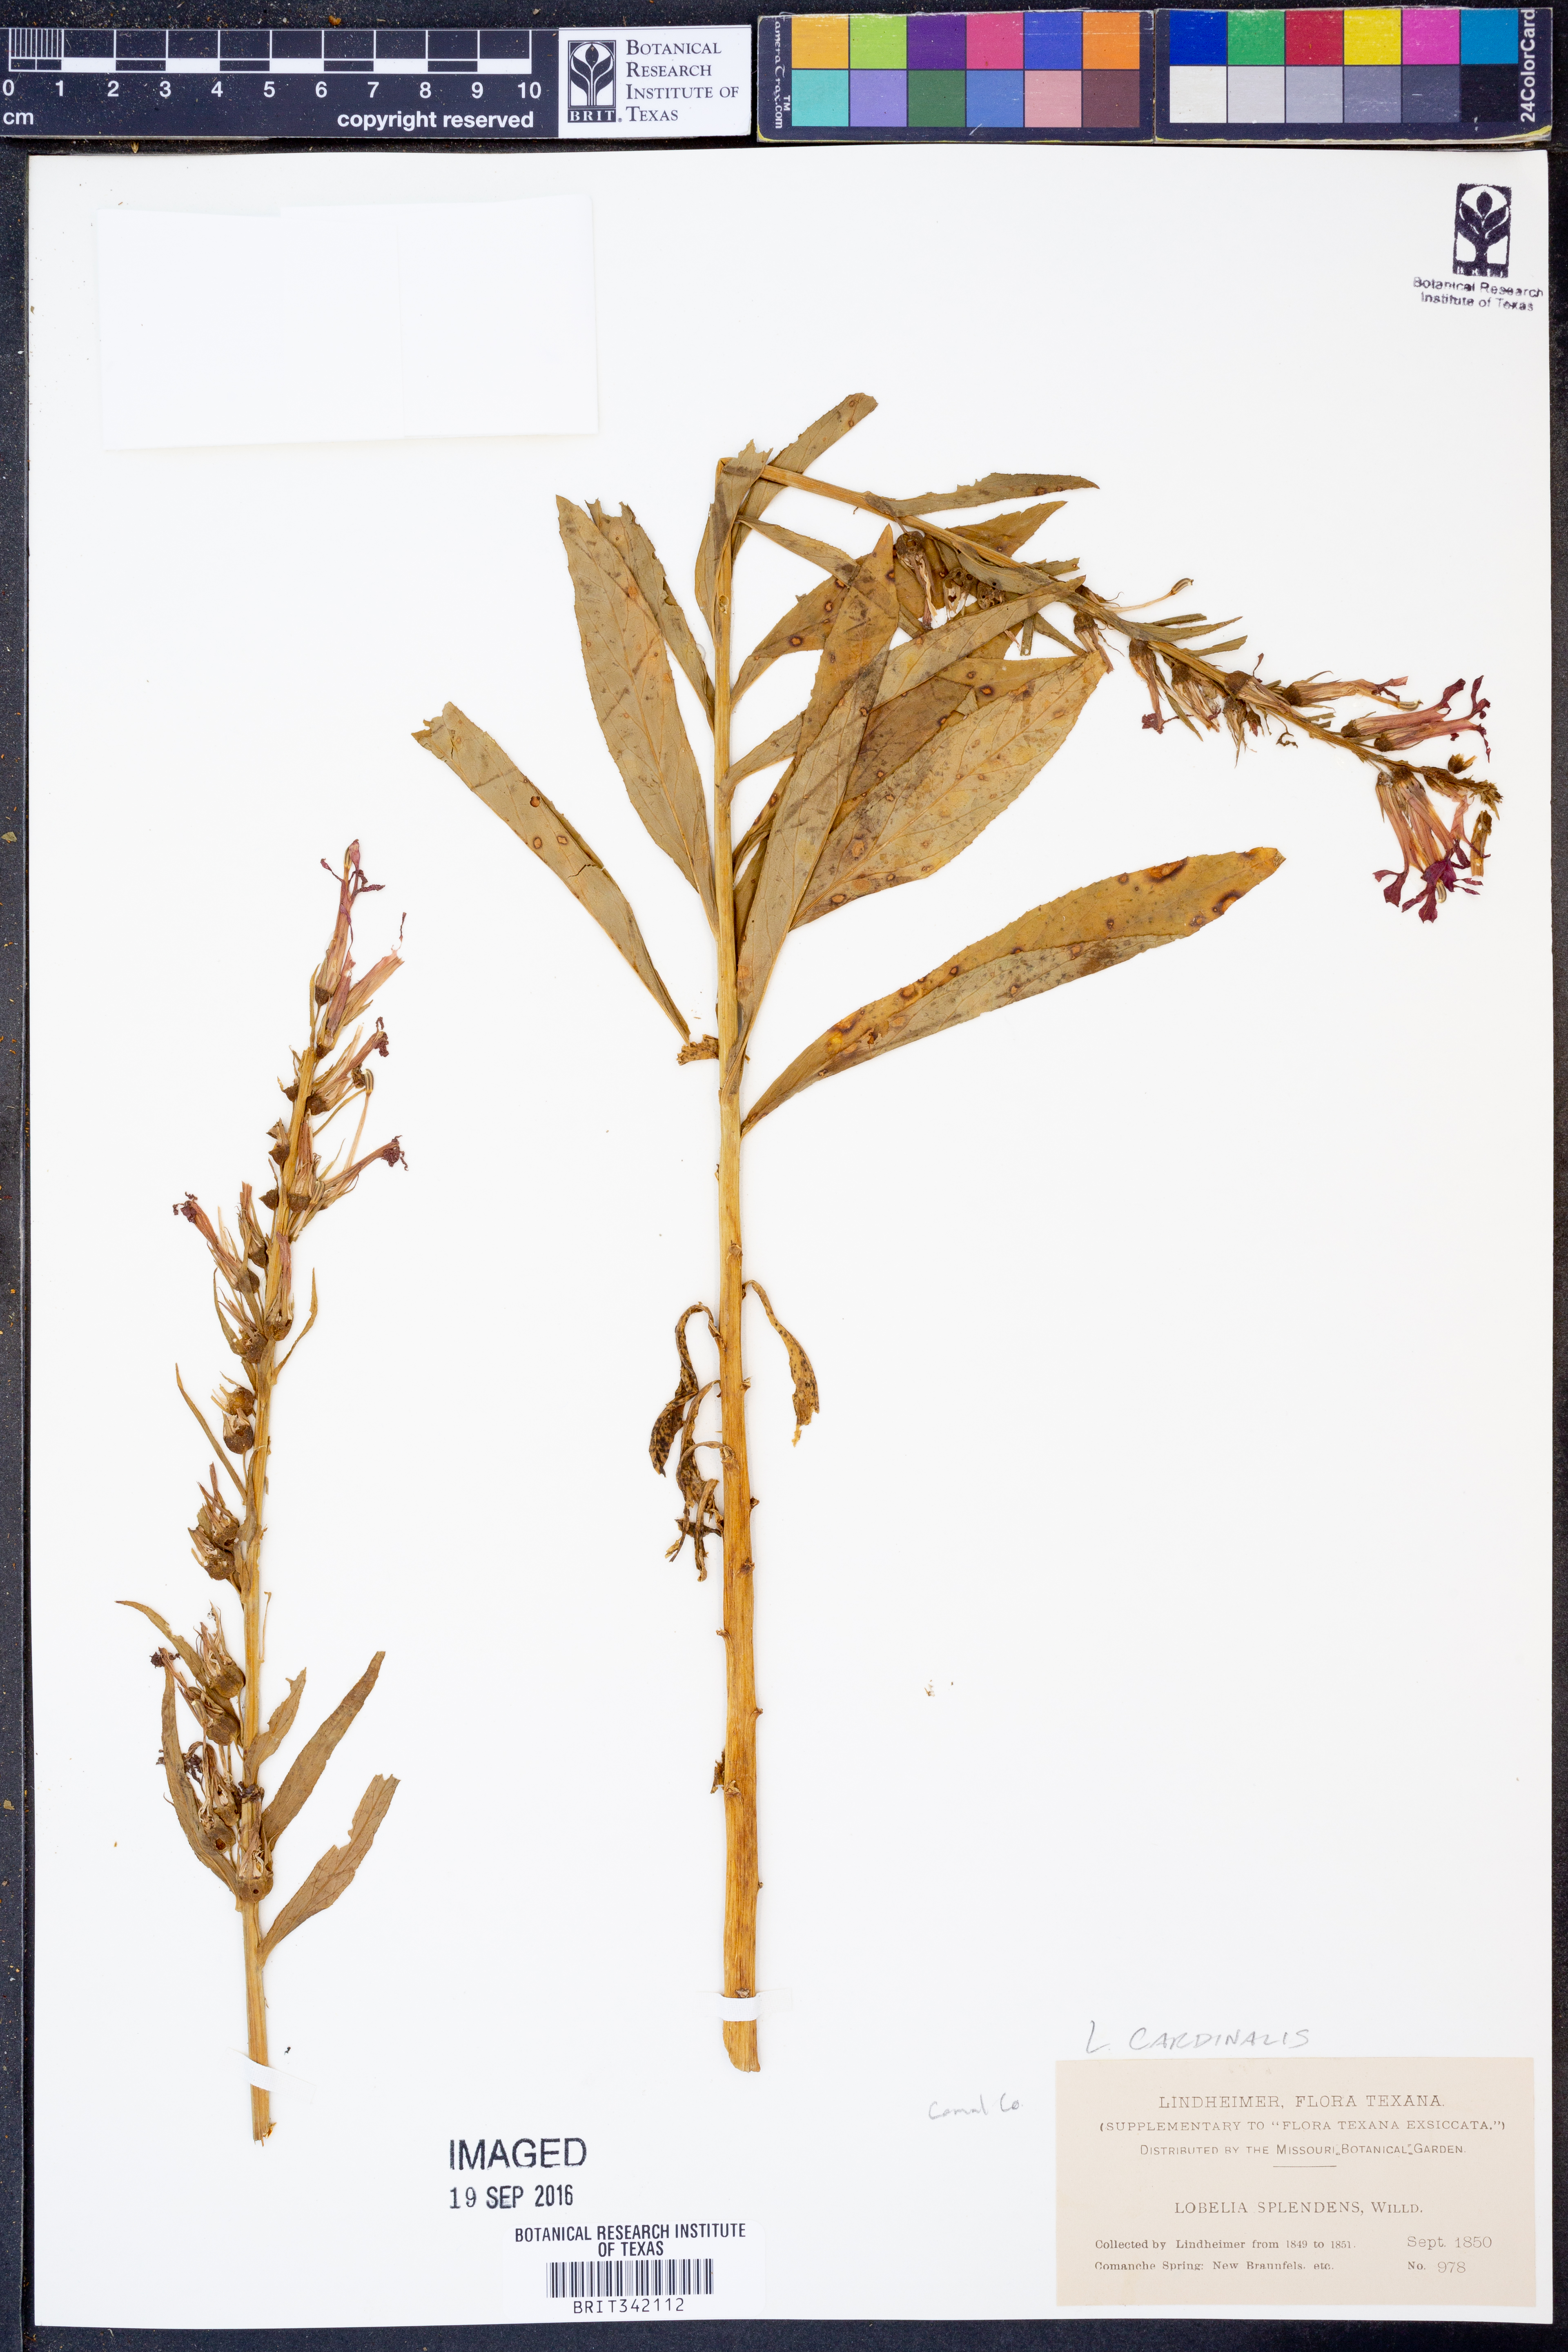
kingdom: Plantae
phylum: Tracheophyta
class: Magnoliopsida
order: Asterales
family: Campanulaceae
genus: Lobelia
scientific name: Lobelia cardinalis
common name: Cardinal flower
